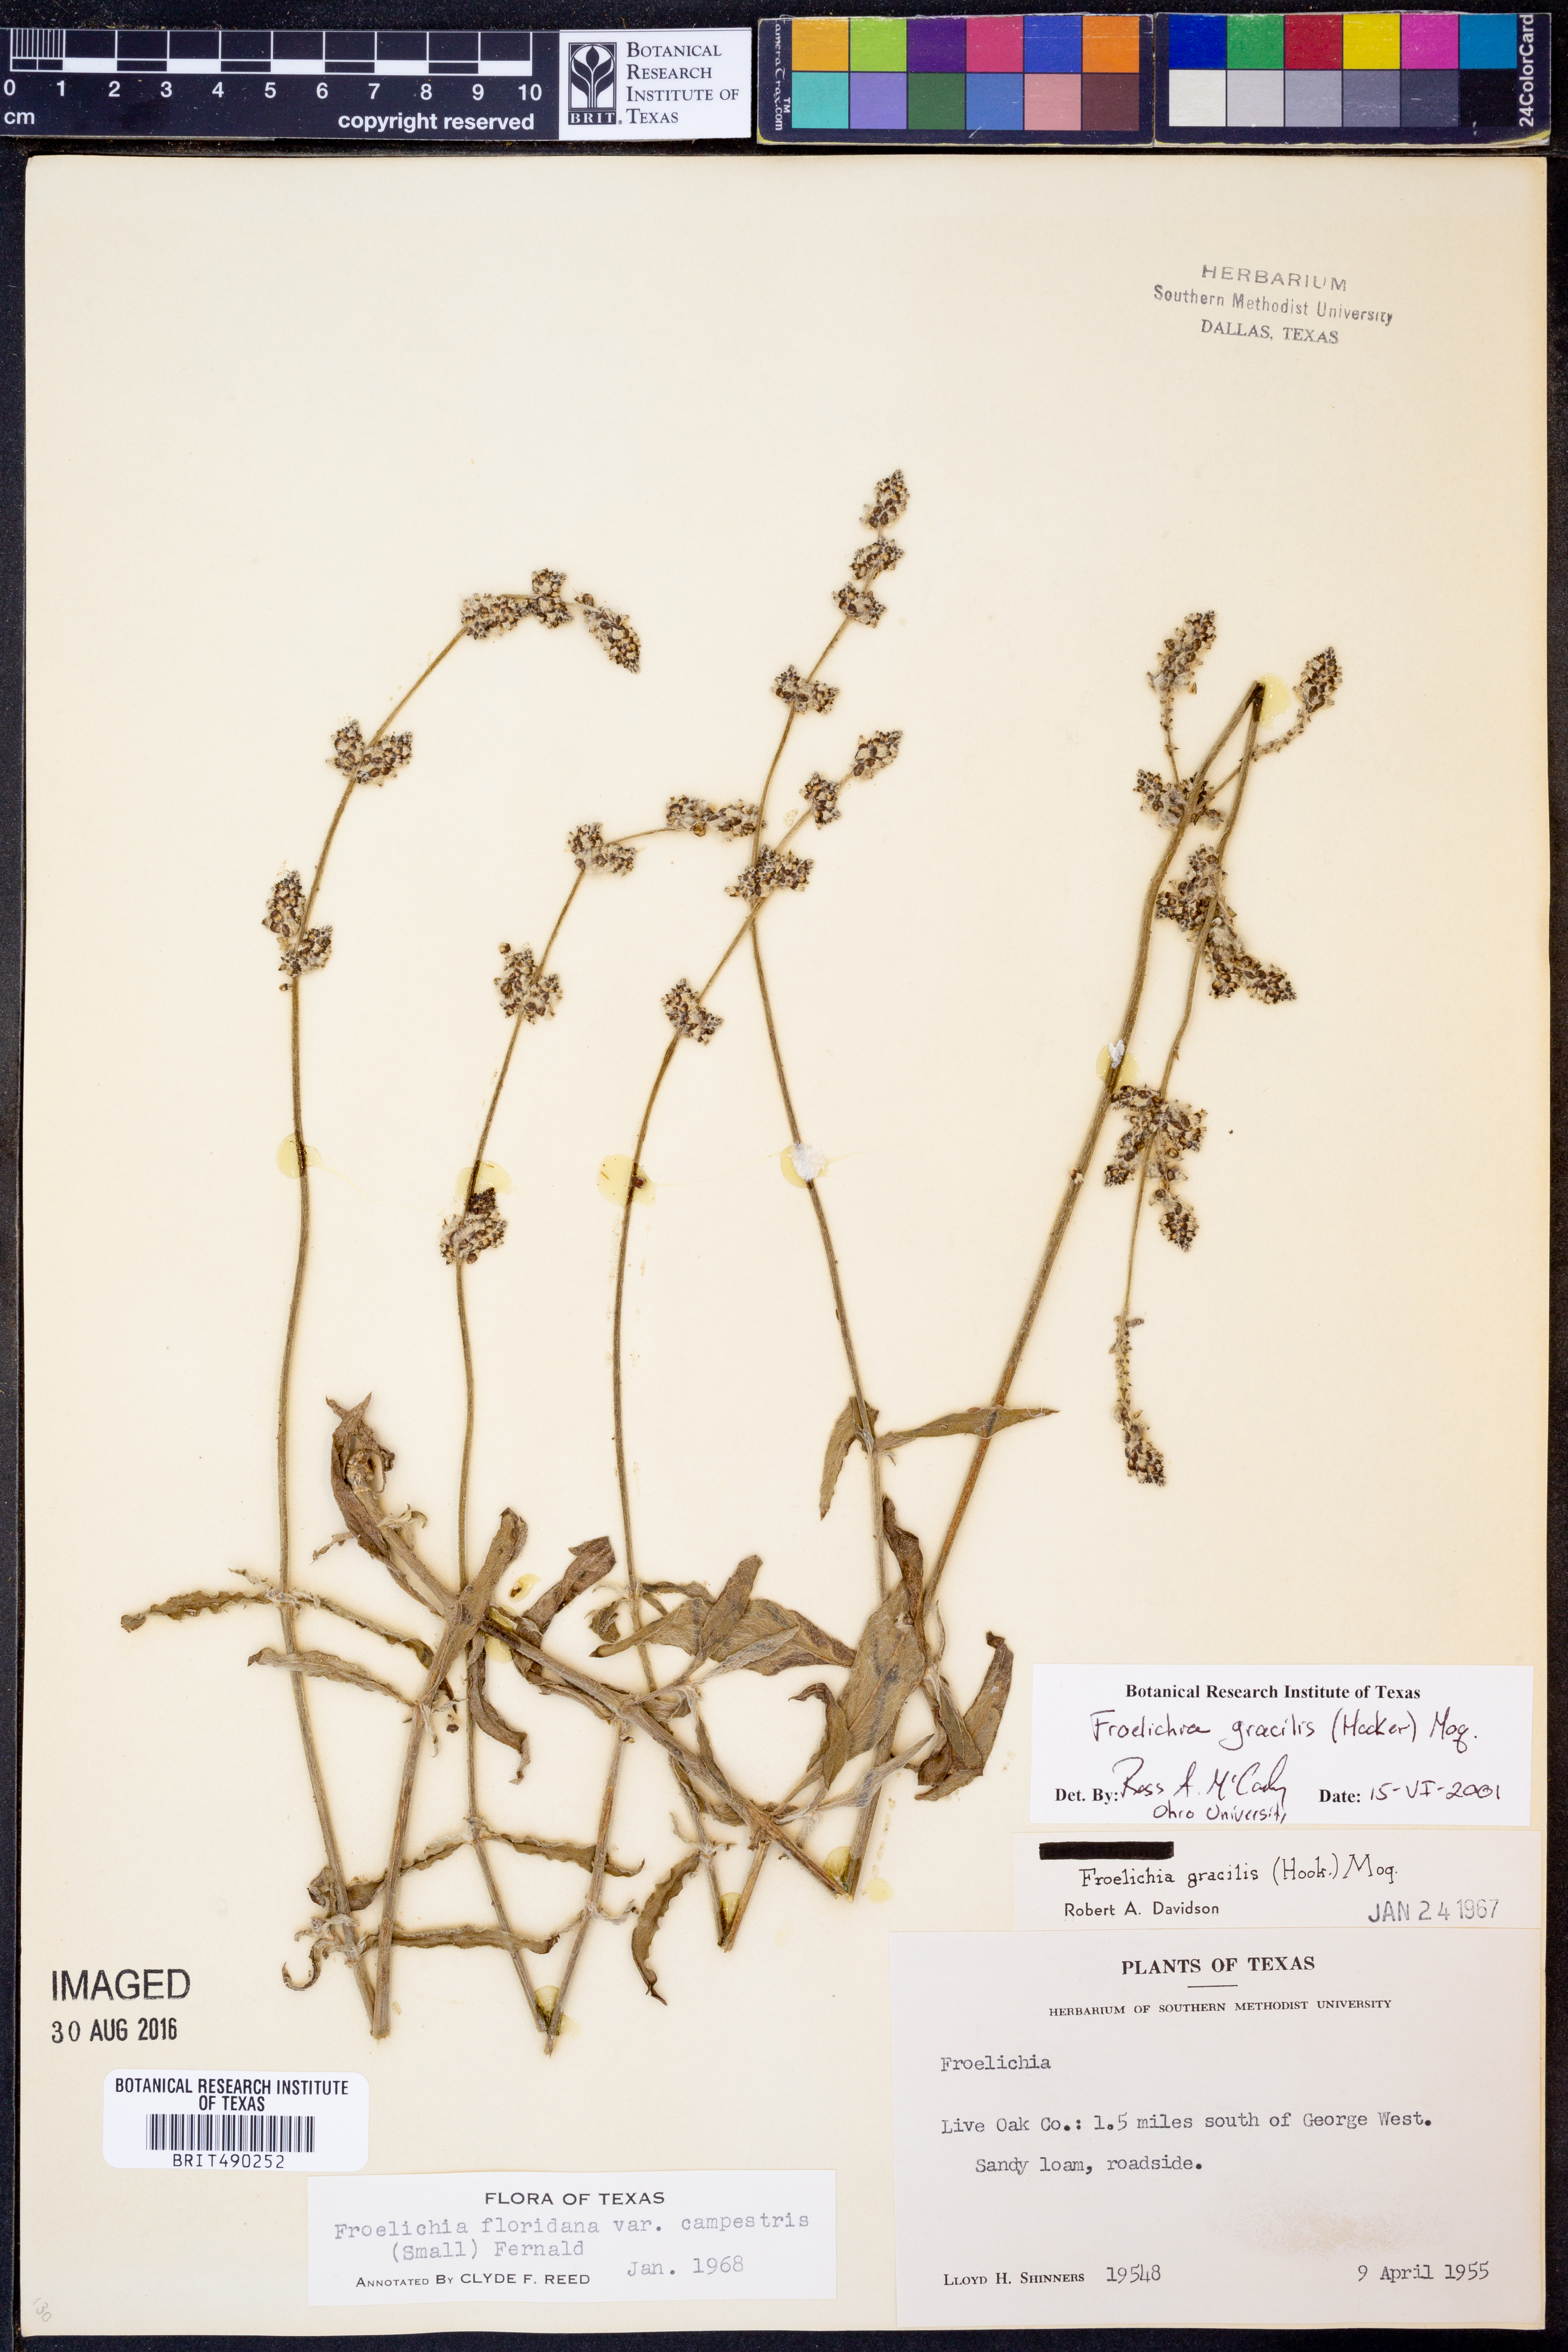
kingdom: Plantae
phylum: Tracheophyta
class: Magnoliopsida
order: Caryophyllales
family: Amaranthaceae
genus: Froelichia
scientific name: Froelichia gracilis
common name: Slender cottonweed
